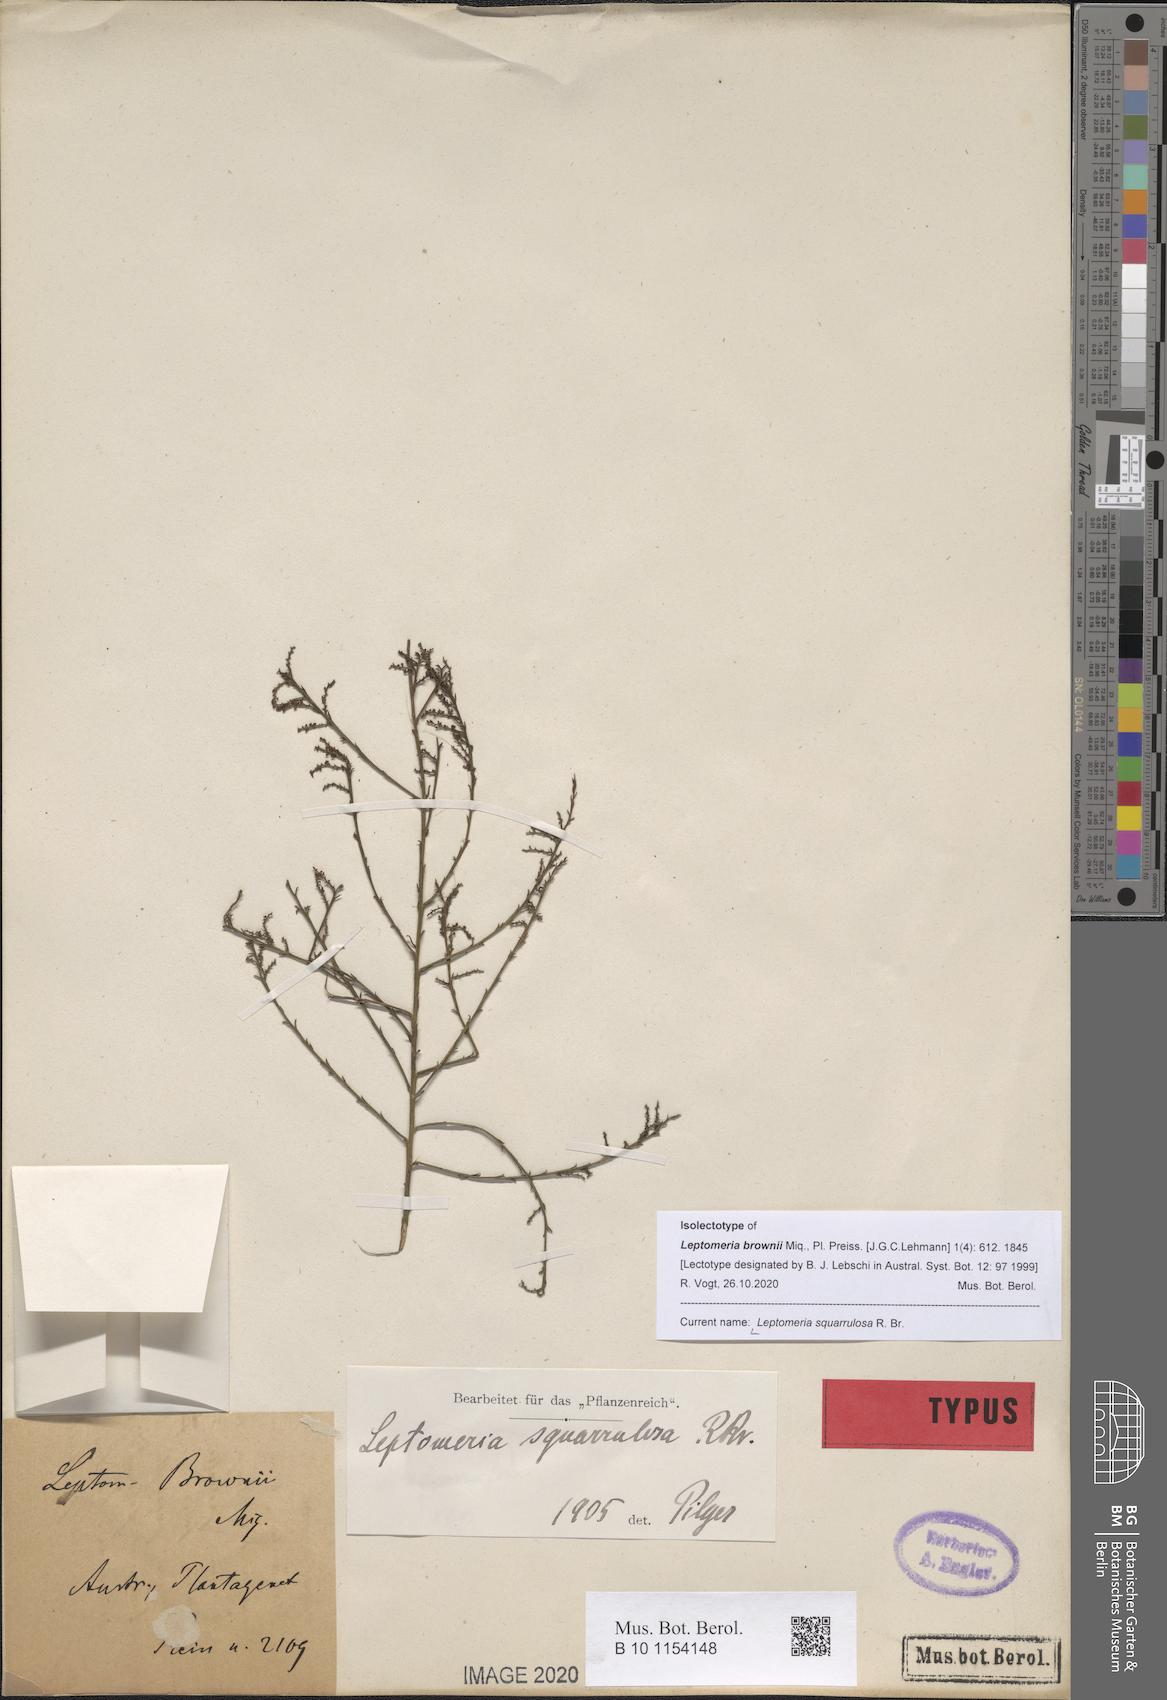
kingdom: Plantae
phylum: Tracheophyta
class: Magnoliopsida
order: Santalales
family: Amphorogynaceae
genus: Leptomeria
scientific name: Leptomeria squarrulosa
